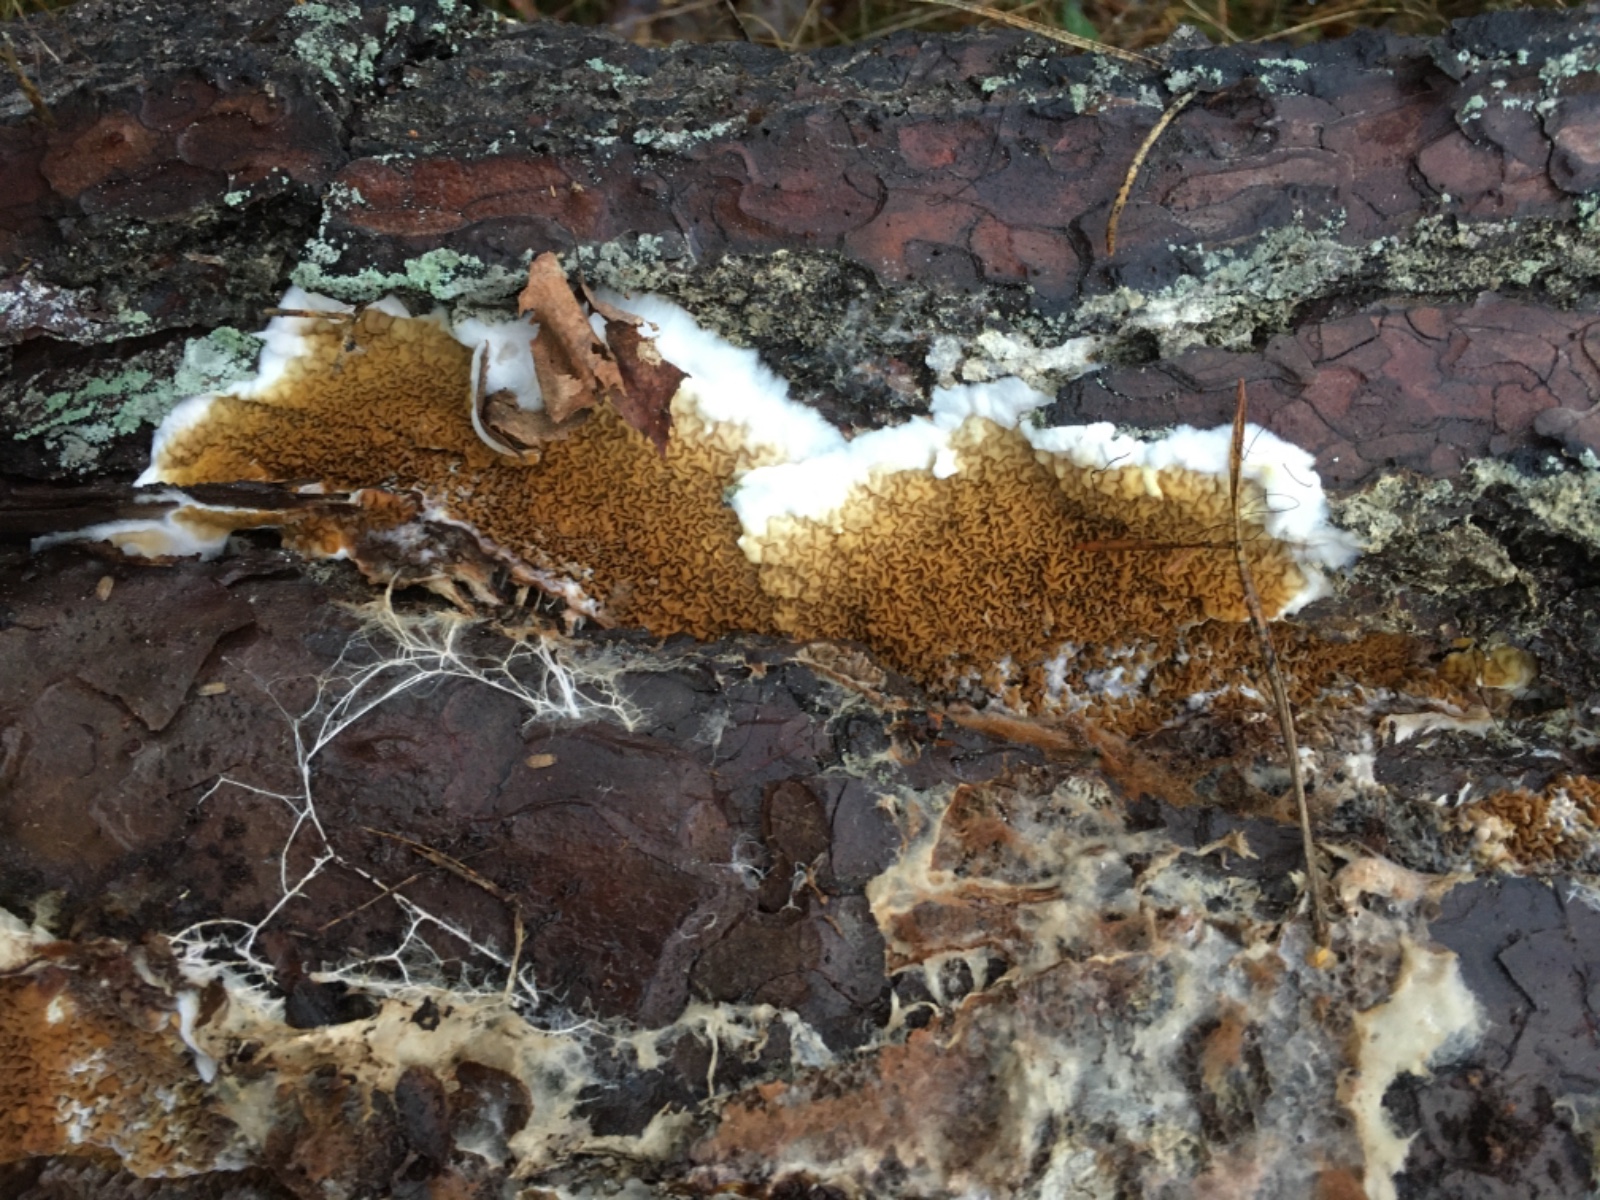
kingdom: Fungi
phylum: Basidiomycota
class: Agaricomycetes
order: Boletales
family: Serpulaceae
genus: Serpula
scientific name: Serpula himantioides
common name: tyndkødet hussvamp
